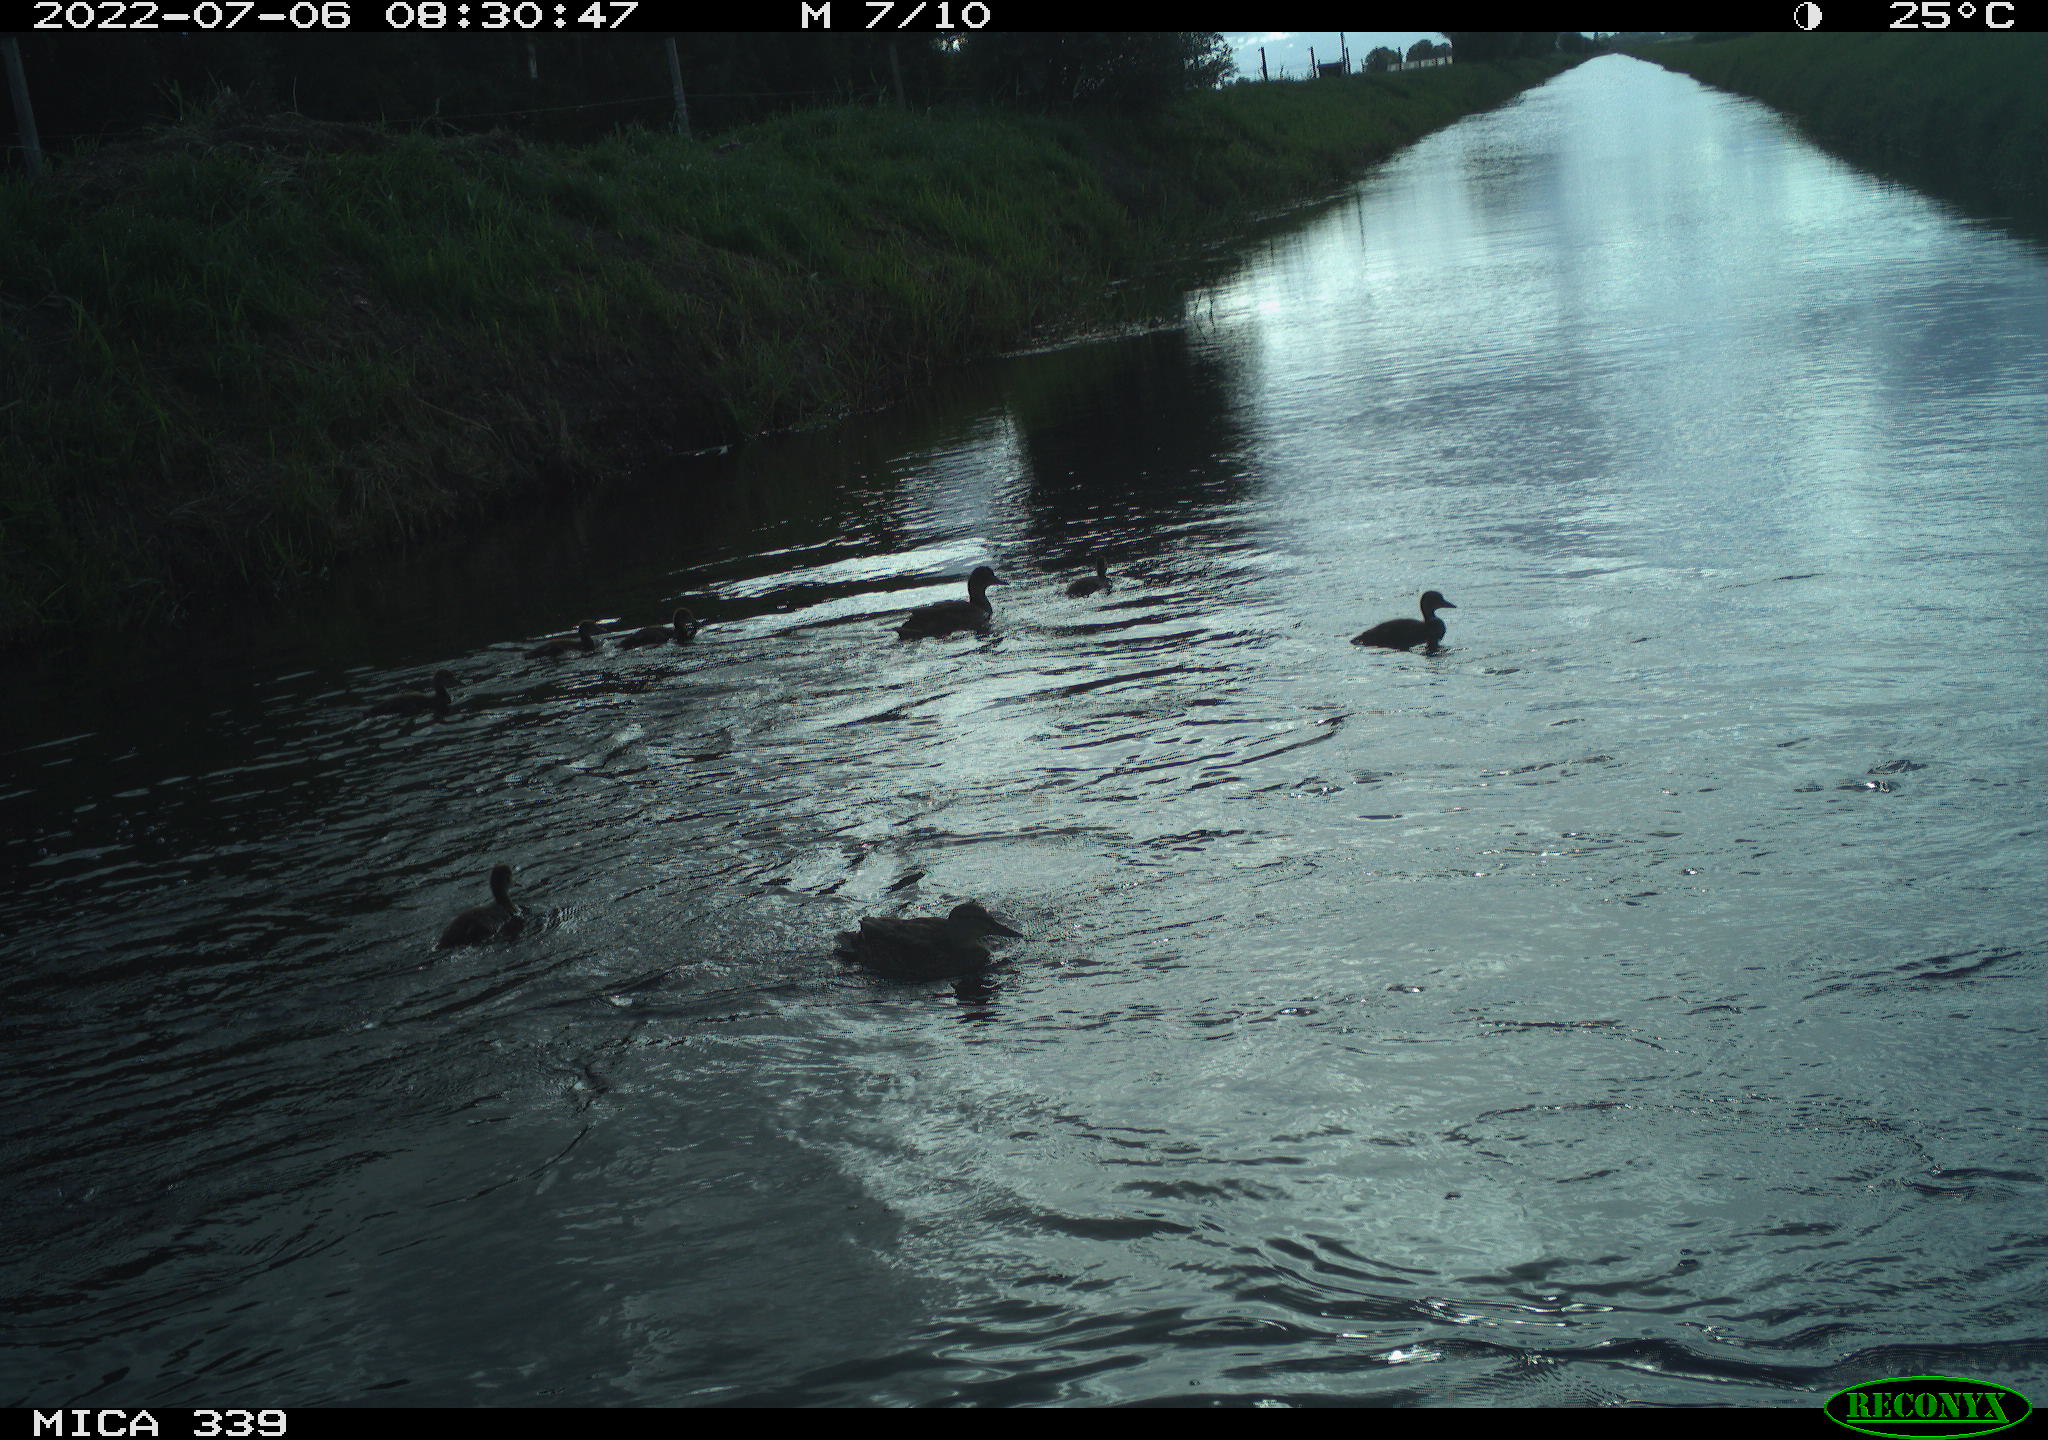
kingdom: Animalia
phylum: Chordata
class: Aves
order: Anseriformes
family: Anatidae
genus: Anas
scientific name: Anas platyrhynchos
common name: Mallard
